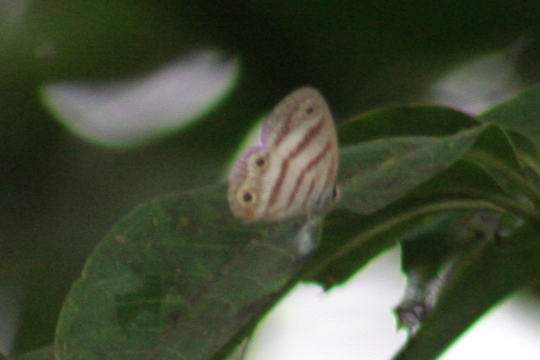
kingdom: Animalia
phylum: Arthropoda
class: Insecta
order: Lepidoptera
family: Nymphalidae
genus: Euptychia
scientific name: Euptychia mollina
